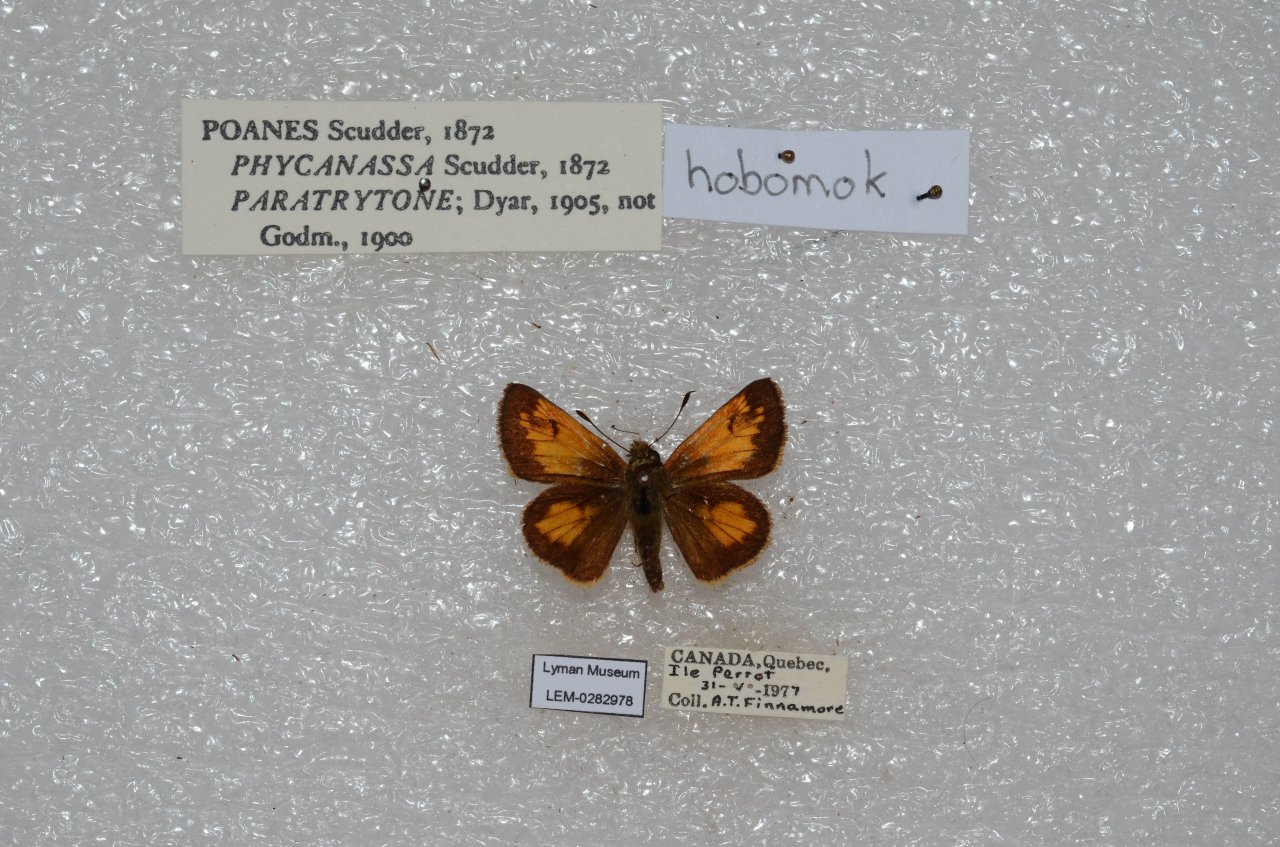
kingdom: Animalia
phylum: Arthropoda
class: Insecta
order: Lepidoptera
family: Hesperiidae
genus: Lon
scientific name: Lon hobomok
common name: Hobomok Skipper
